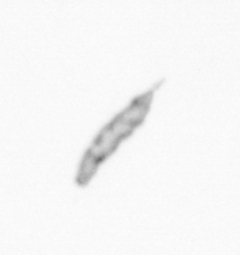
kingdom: Chromista
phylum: Ochrophyta
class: Bacillariophyceae
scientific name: Bacillariophyceae
